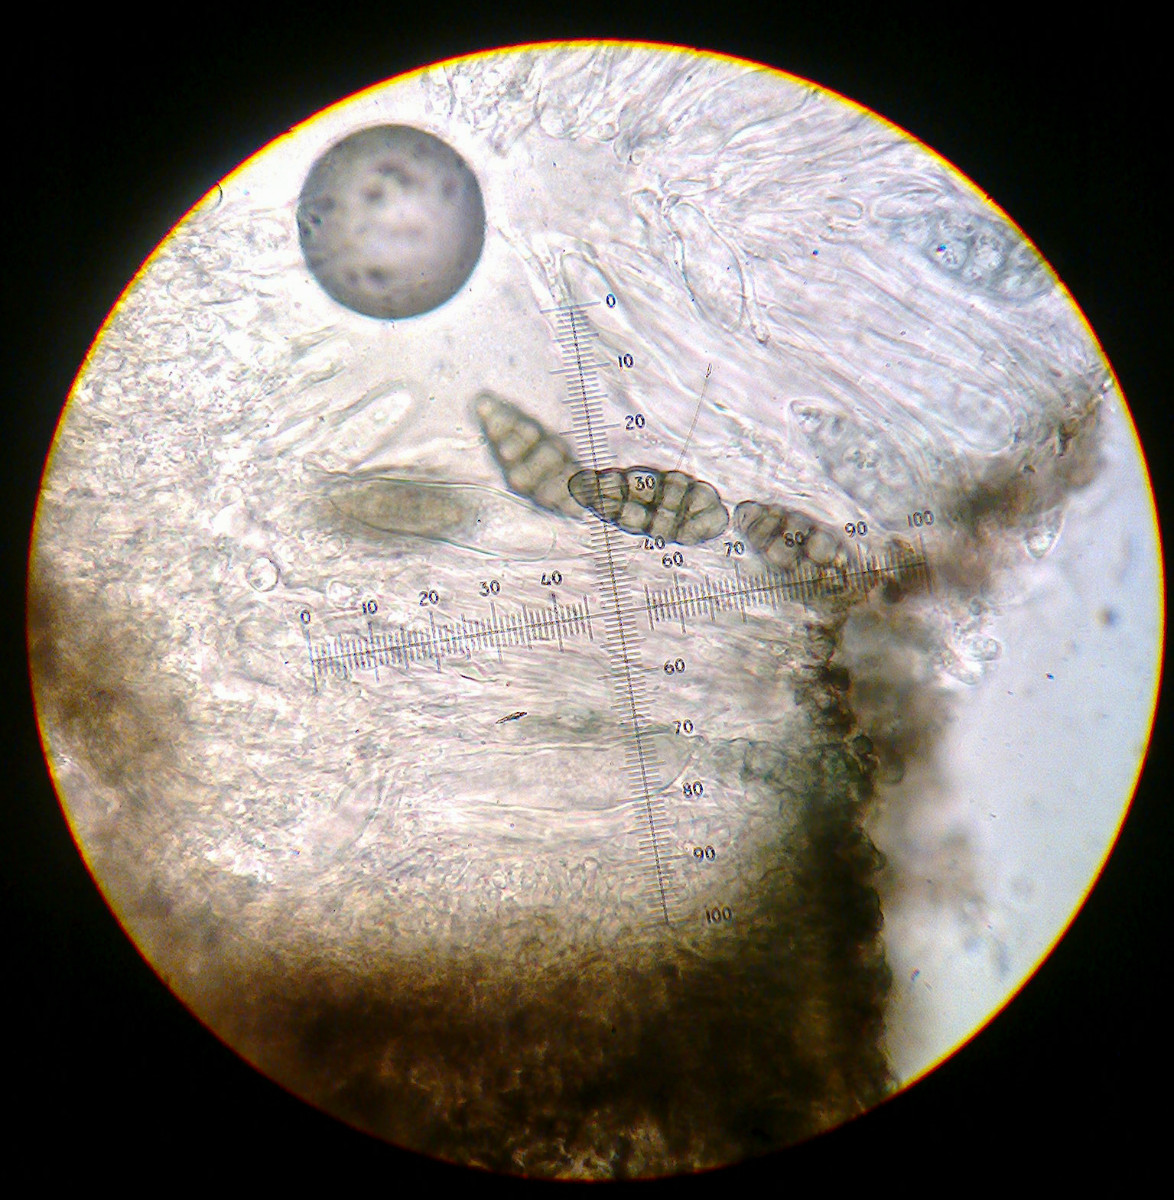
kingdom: Fungi
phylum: Ascomycota
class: Lecanoromycetes
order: Ostropales
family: Graphidaceae
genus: Diploschistes
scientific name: Diploschistes muscorum
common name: mos-kraterlav
